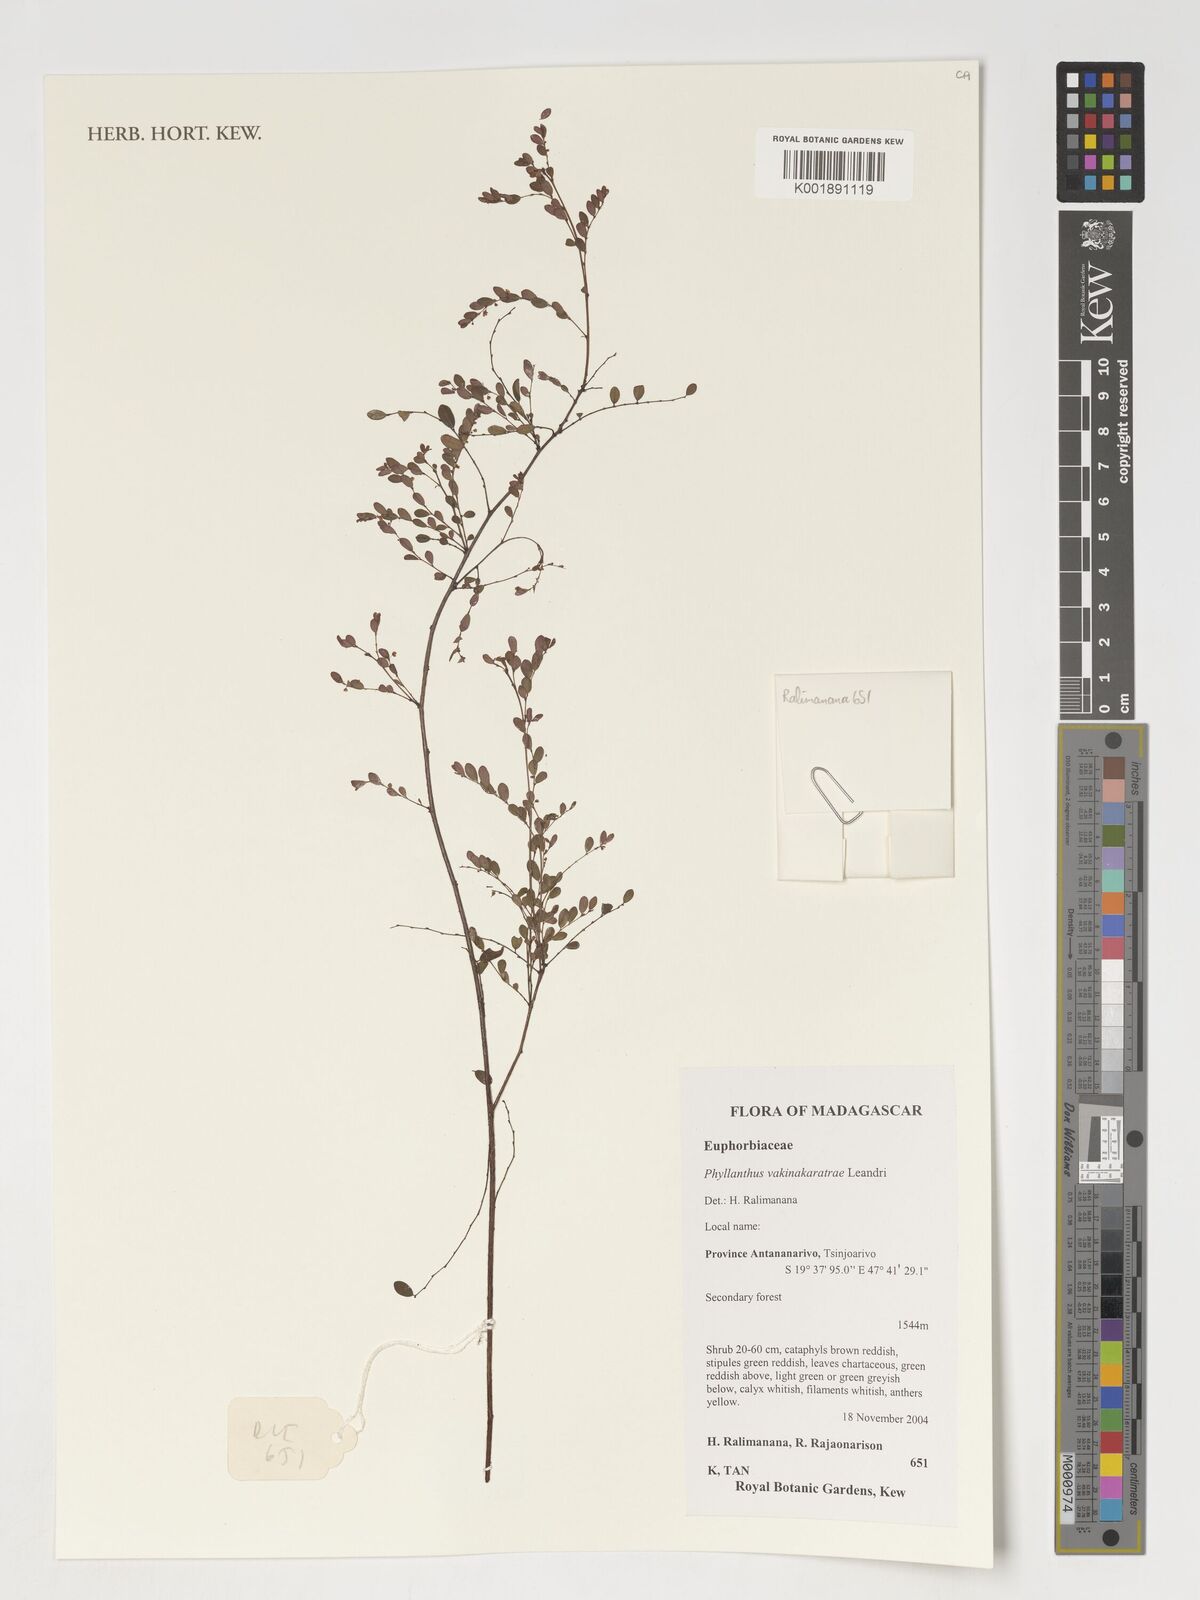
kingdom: Plantae
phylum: Tracheophyta
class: Magnoliopsida
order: Malpighiales
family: Phyllanthaceae
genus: Phyllanthus
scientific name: Phyllanthus vakinankaratrae
